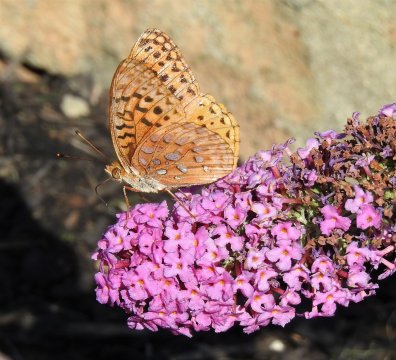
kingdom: Animalia
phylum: Arthropoda
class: Insecta
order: Lepidoptera
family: Nymphalidae
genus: Speyeria
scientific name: Speyeria cybele
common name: Great Spangled Fritillary
